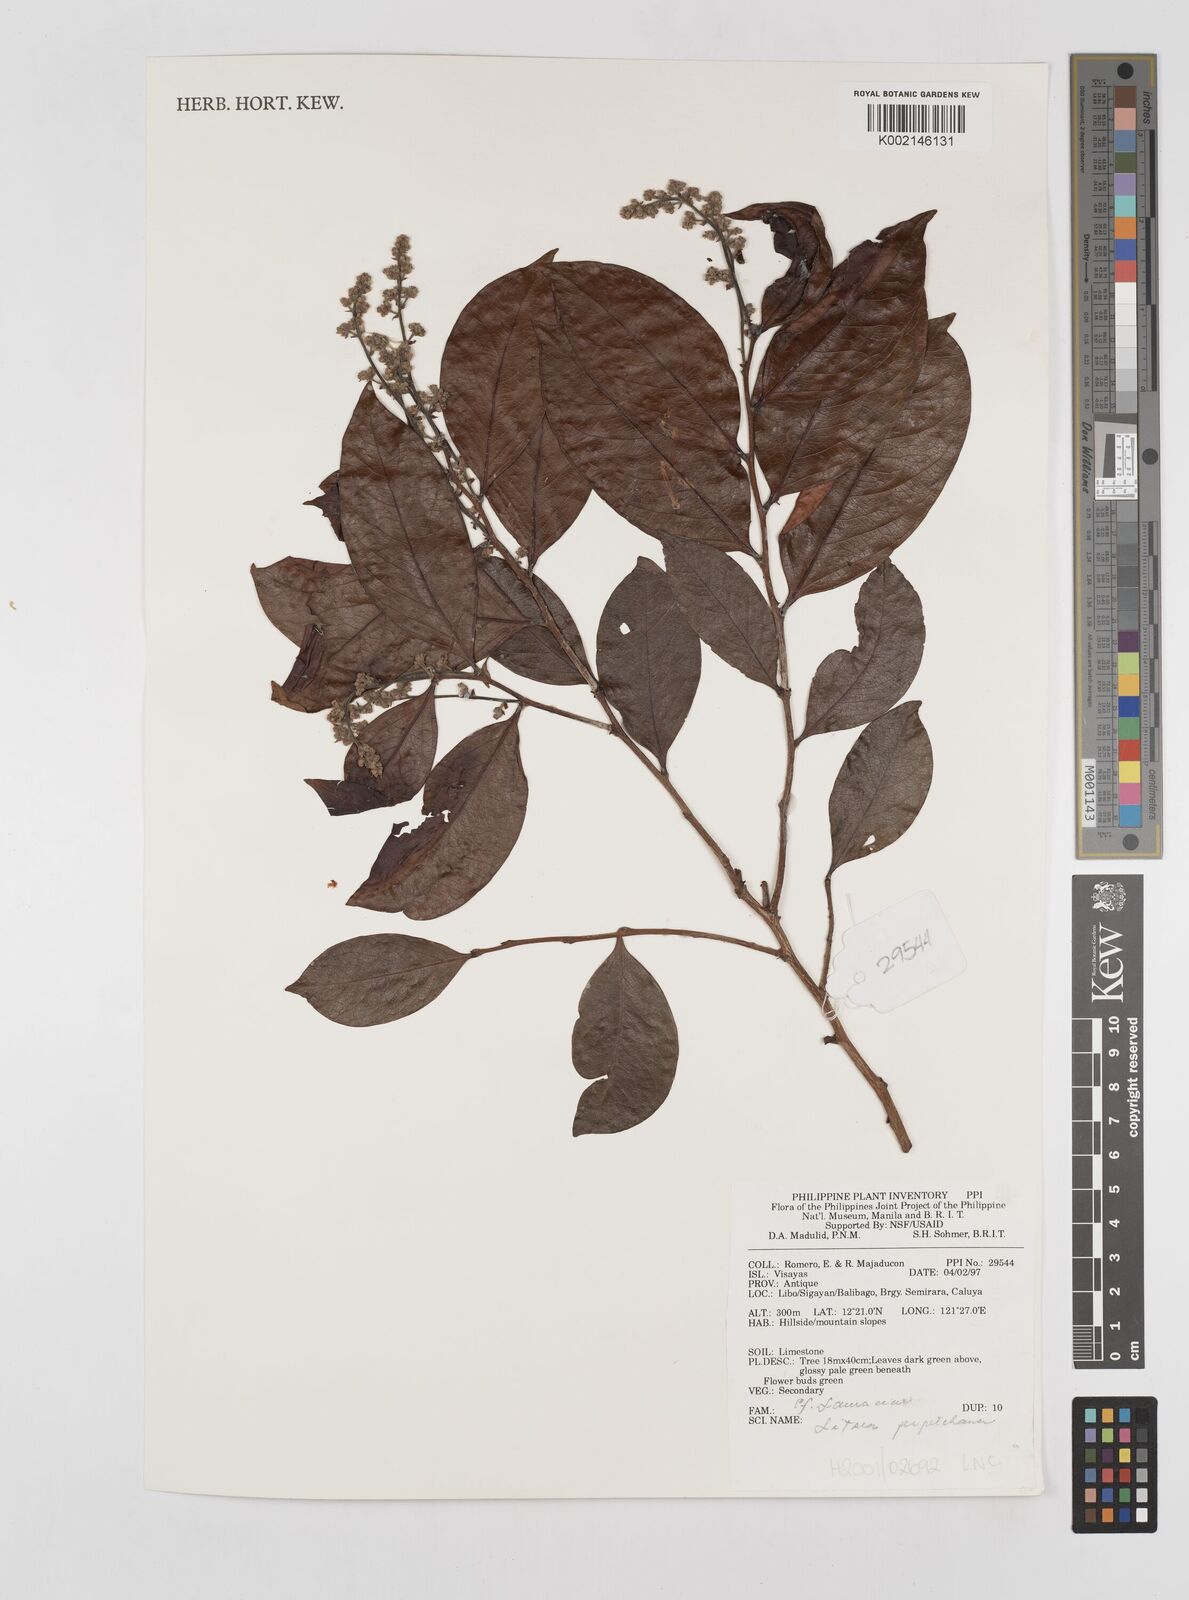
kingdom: Plantae
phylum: Tracheophyta
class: Magnoliopsida
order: Laurales
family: Lauraceae
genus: Litsea
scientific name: Litsea
